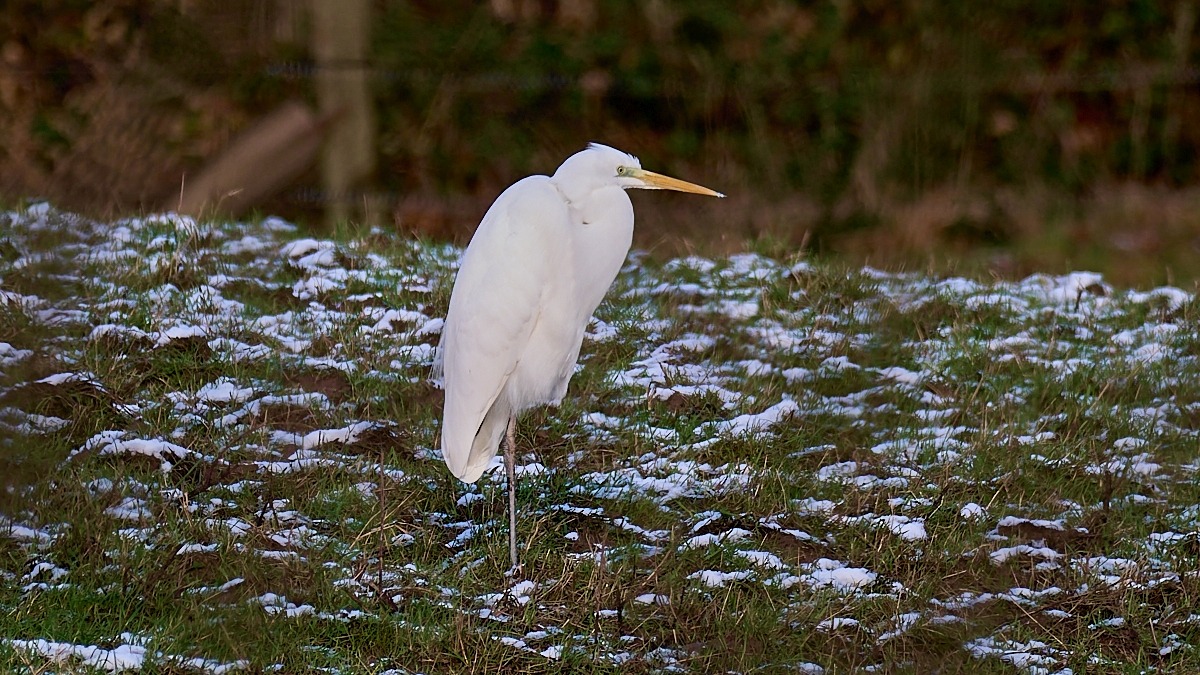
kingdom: Animalia
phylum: Chordata
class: Aves
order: Pelecaniformes
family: Ardeidae
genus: Ardea
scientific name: Ardea alba
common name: Sølvhejre
